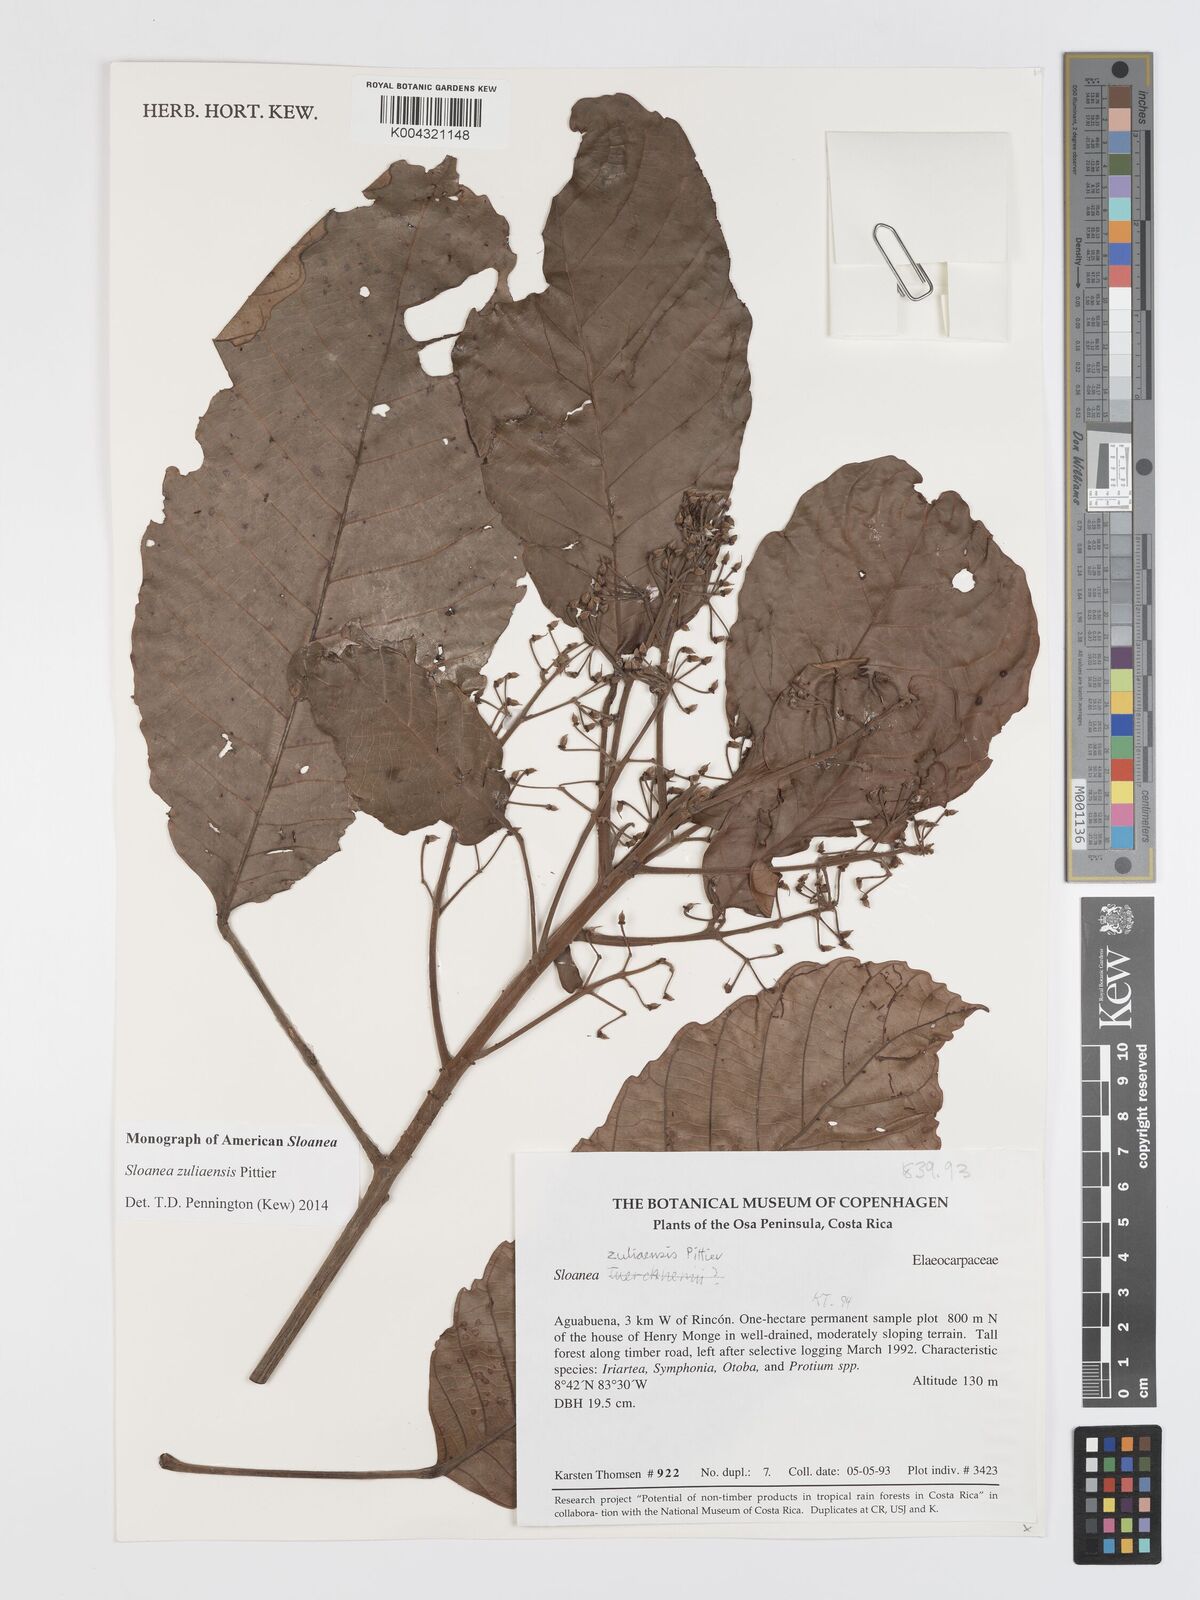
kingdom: Plantae
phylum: Tracheophyta
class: Magnoliopsida
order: Oxalidales
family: Elaeocarpaceae
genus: Sloanea
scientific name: Sloanea zuliaensis
